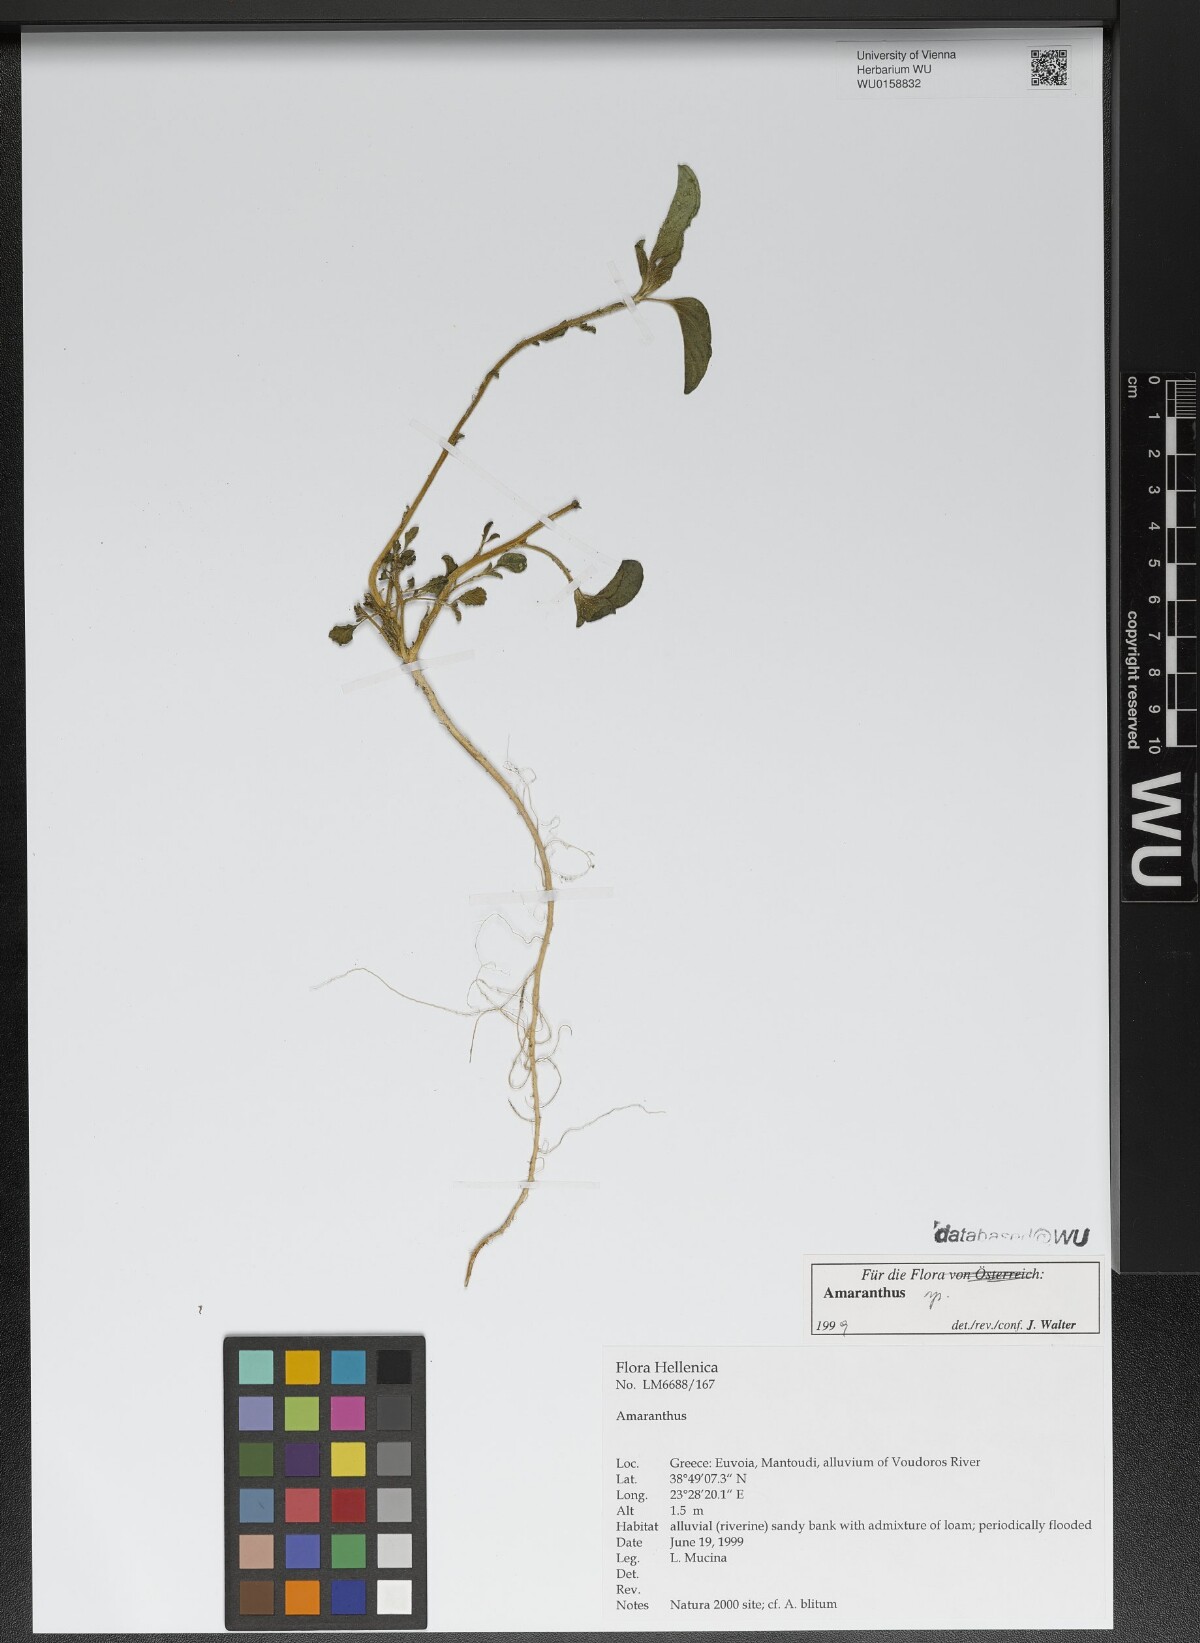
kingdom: Plantae
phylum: Tracheophyta
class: Magnoliopsida
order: Caryophyllales
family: Amaranthaceae
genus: Amaranthus
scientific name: Amaranthus
